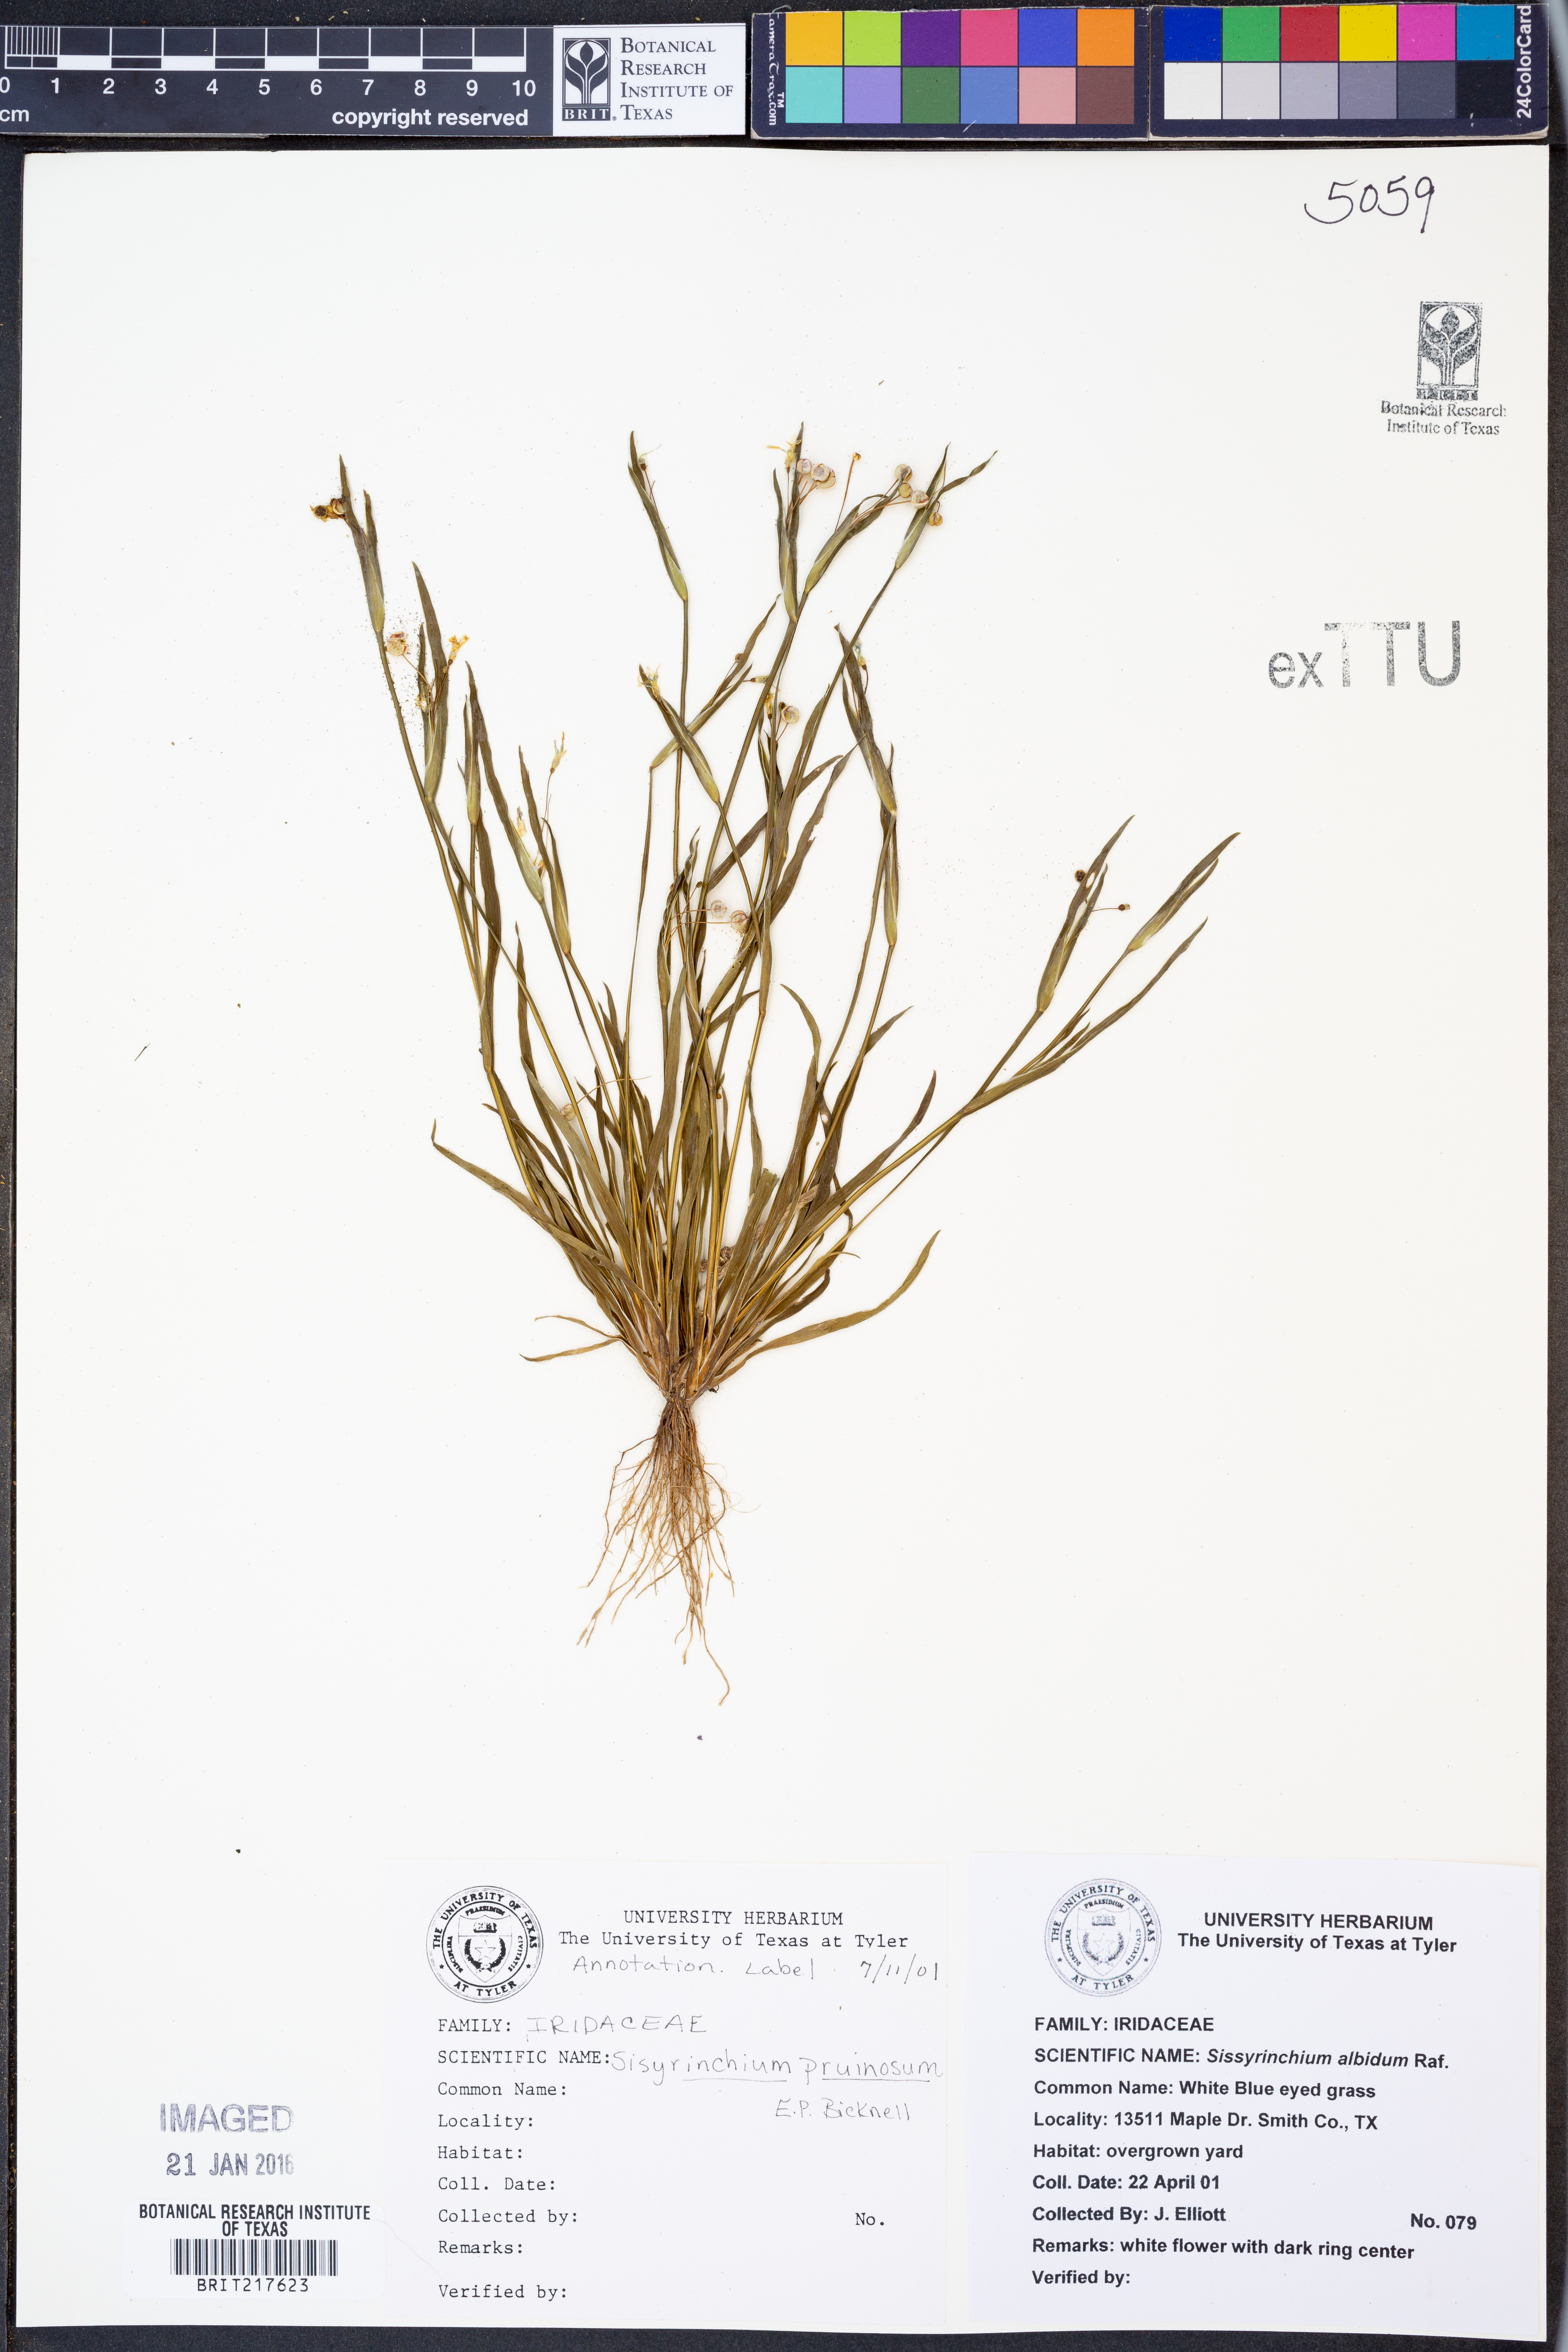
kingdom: Plantae
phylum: Tracheophyta
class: Liliopsida
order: Asparagales
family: Iridaceae
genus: Sisyrinchium
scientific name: Sisyrinchium rosulatum
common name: Annual blue-eyed grass
